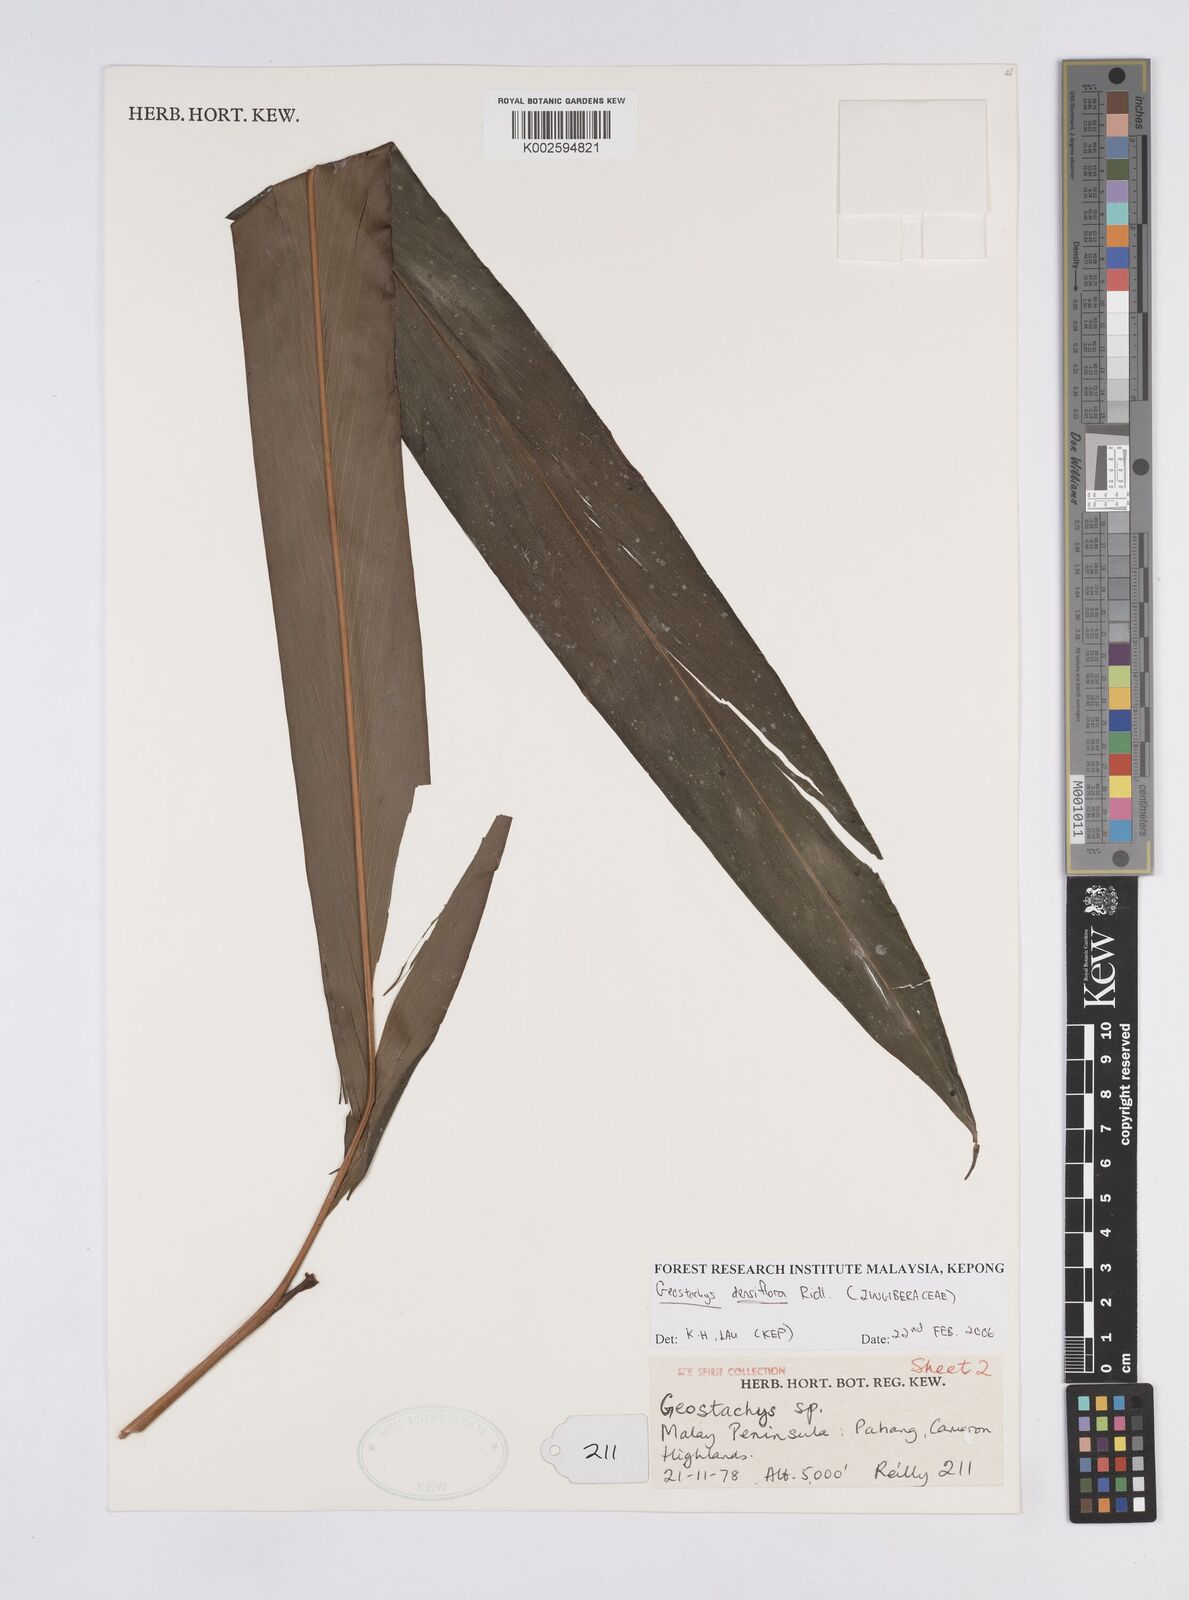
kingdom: Plantae
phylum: Tracheophyta
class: Liliopsida
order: Zingiberales
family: Zingiberaceae
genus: Geostachys
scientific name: Geostachys densiflora
